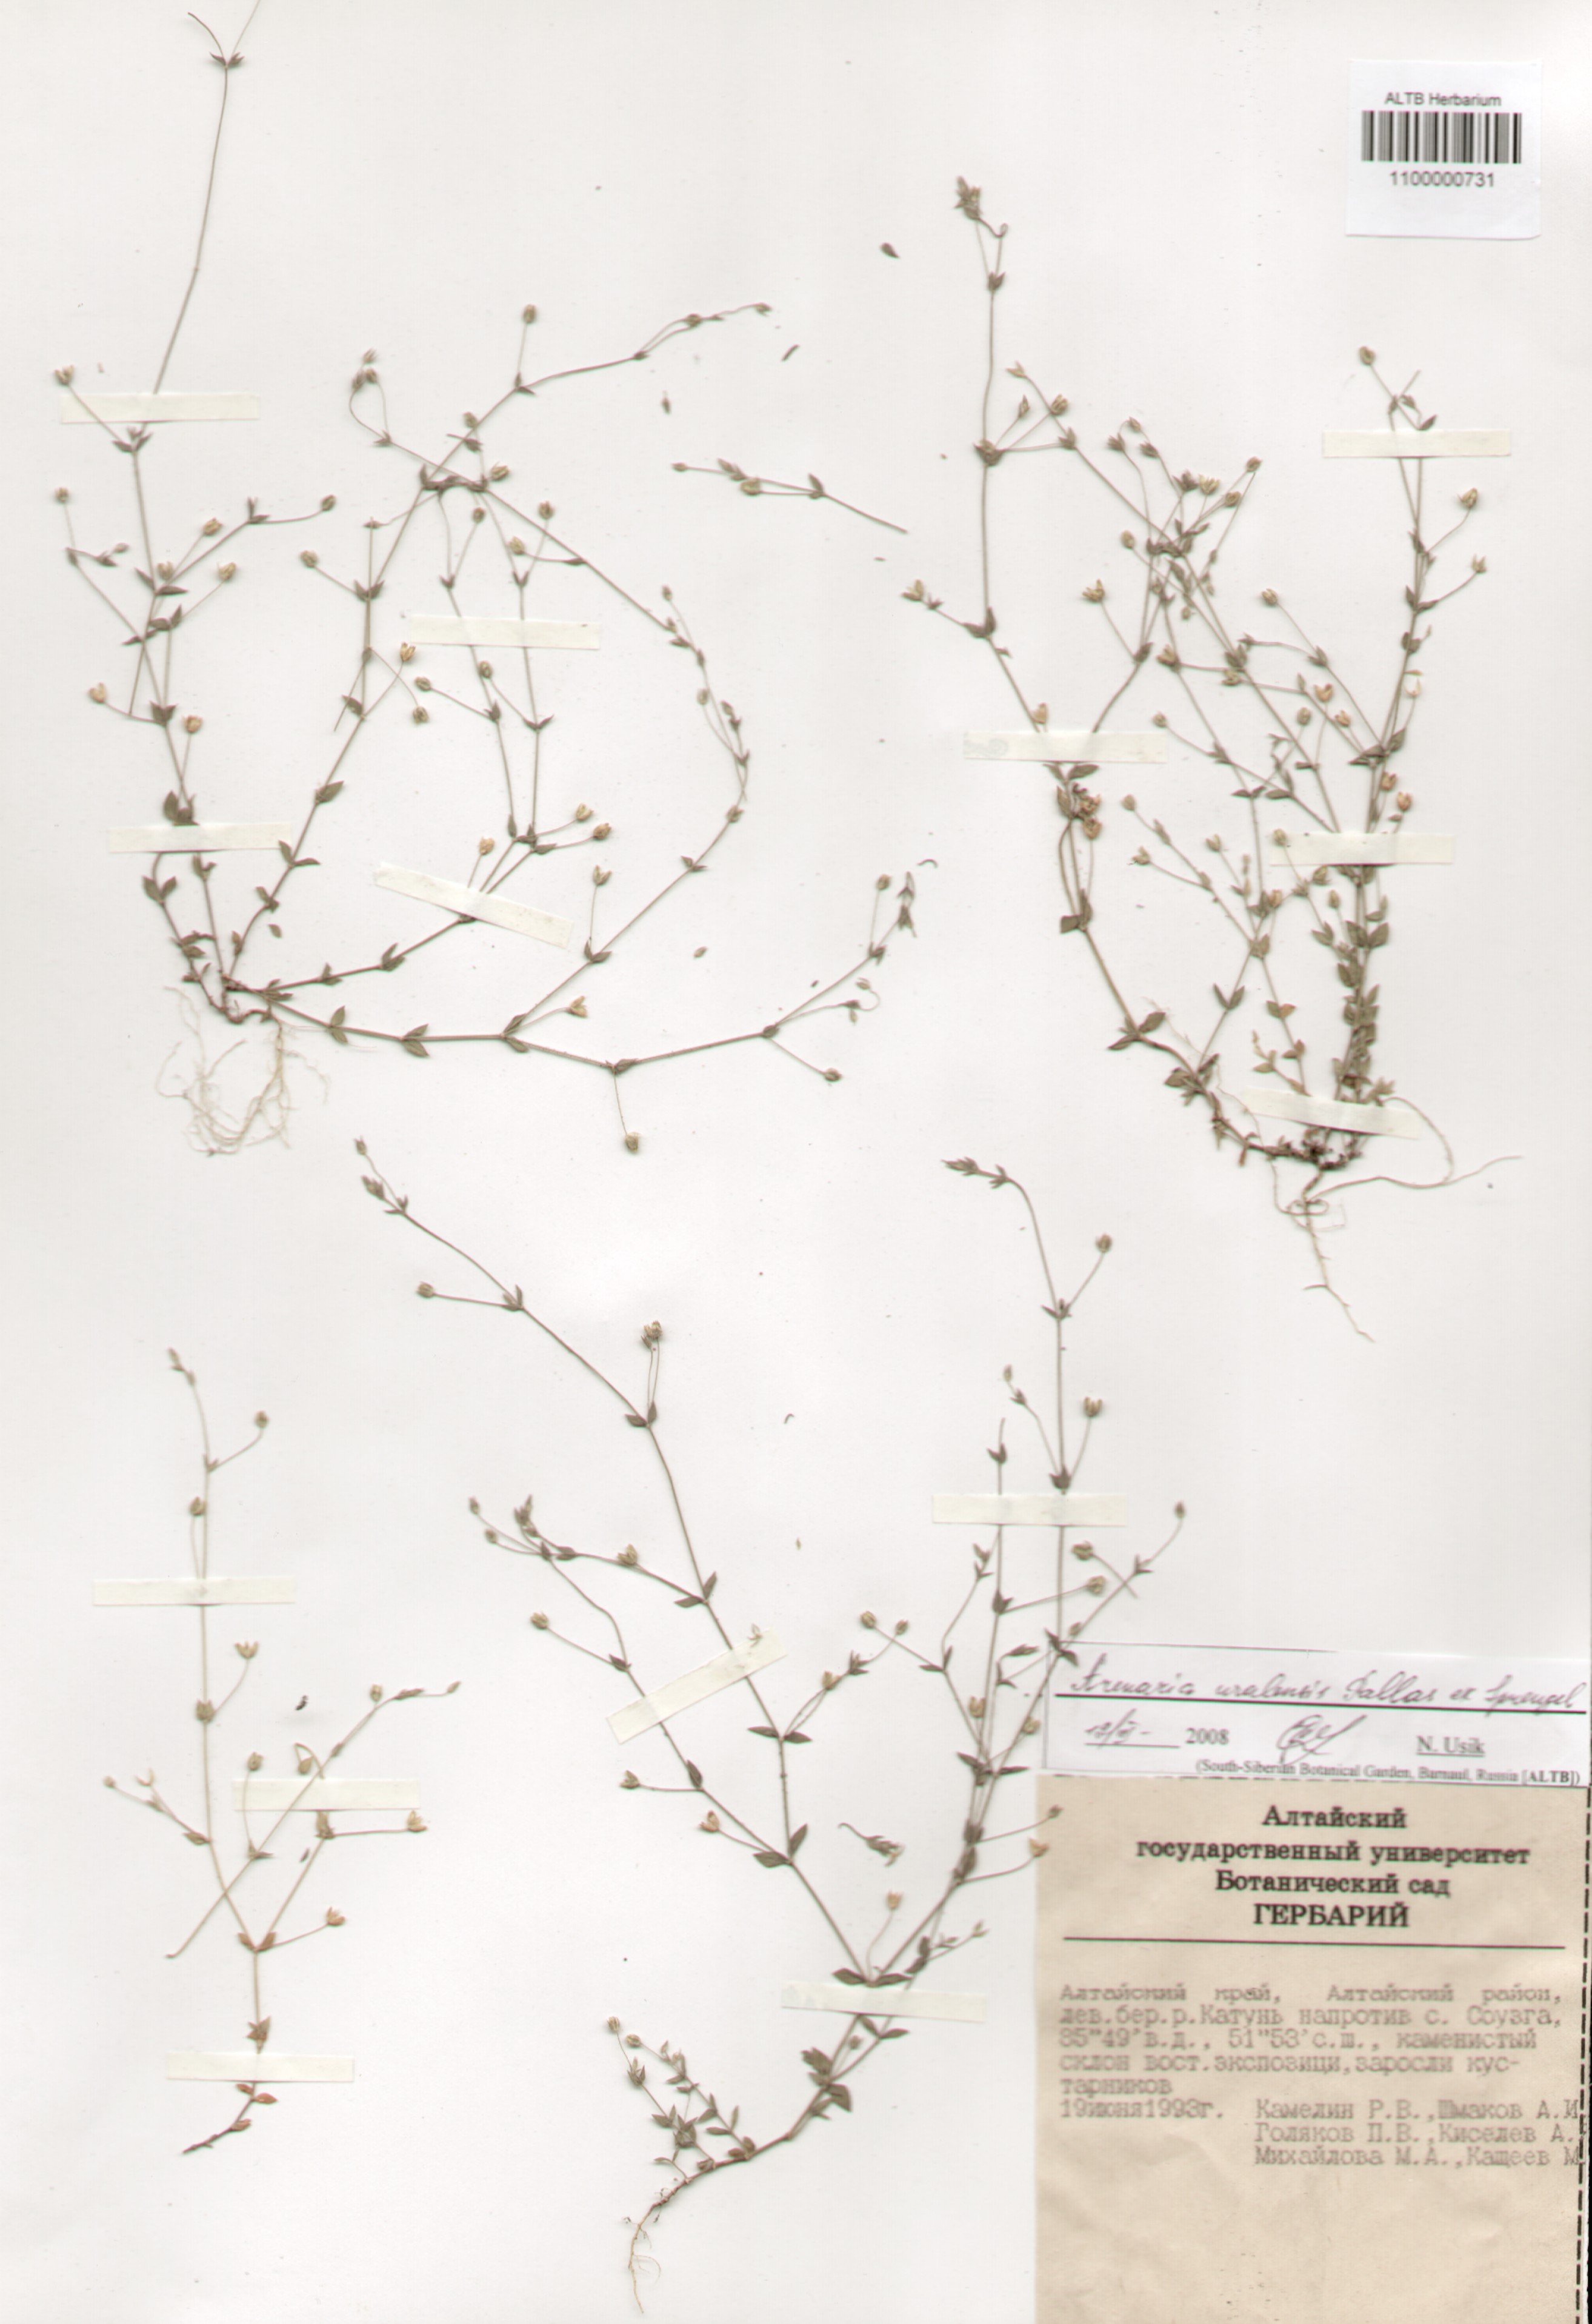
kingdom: Plantae
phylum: Tracheophyta
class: Magnoliopsida
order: Caryophyllales
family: Caryophyllaceae
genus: Arenaria
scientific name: Arenaria serpyllifolia
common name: Thyme-leaved sandwort
